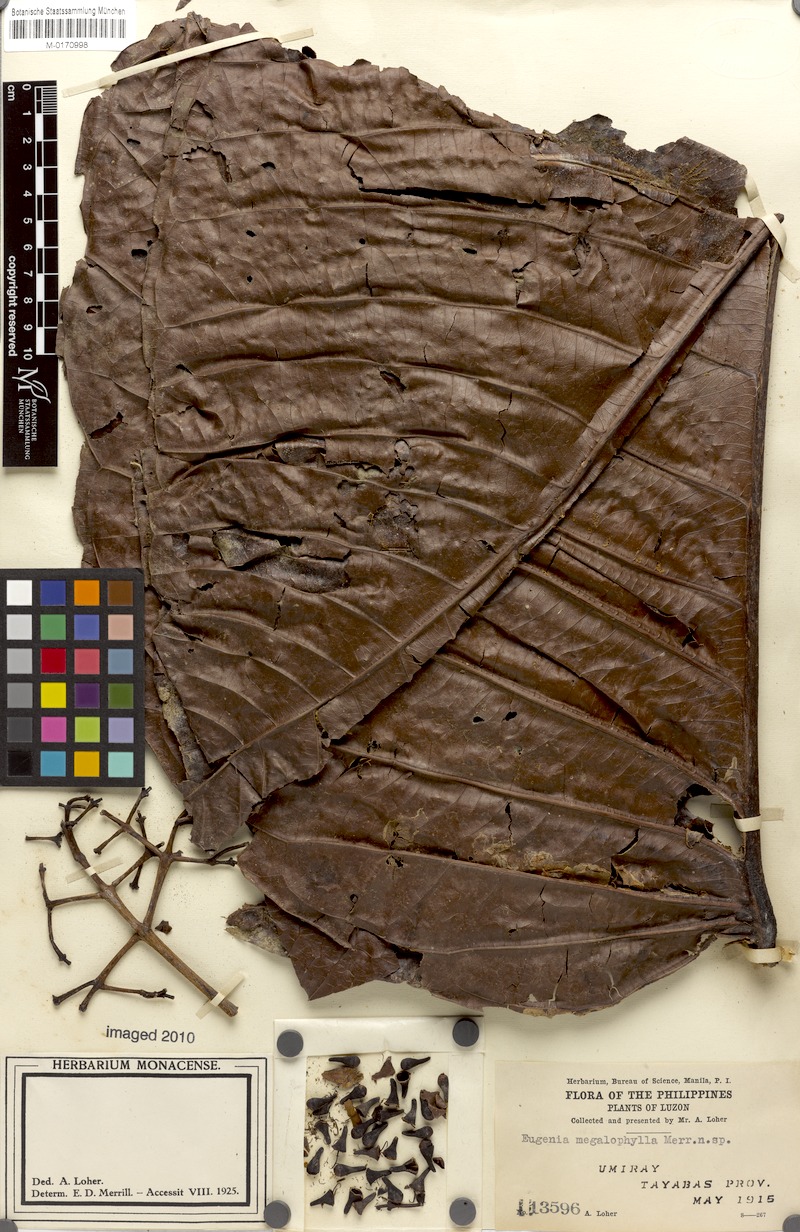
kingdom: Plantae
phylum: Tracheophyta
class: Magnoliopsida
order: Myrtales
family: Myrtaceae
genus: Syzygium
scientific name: Syzygium grandifolium
